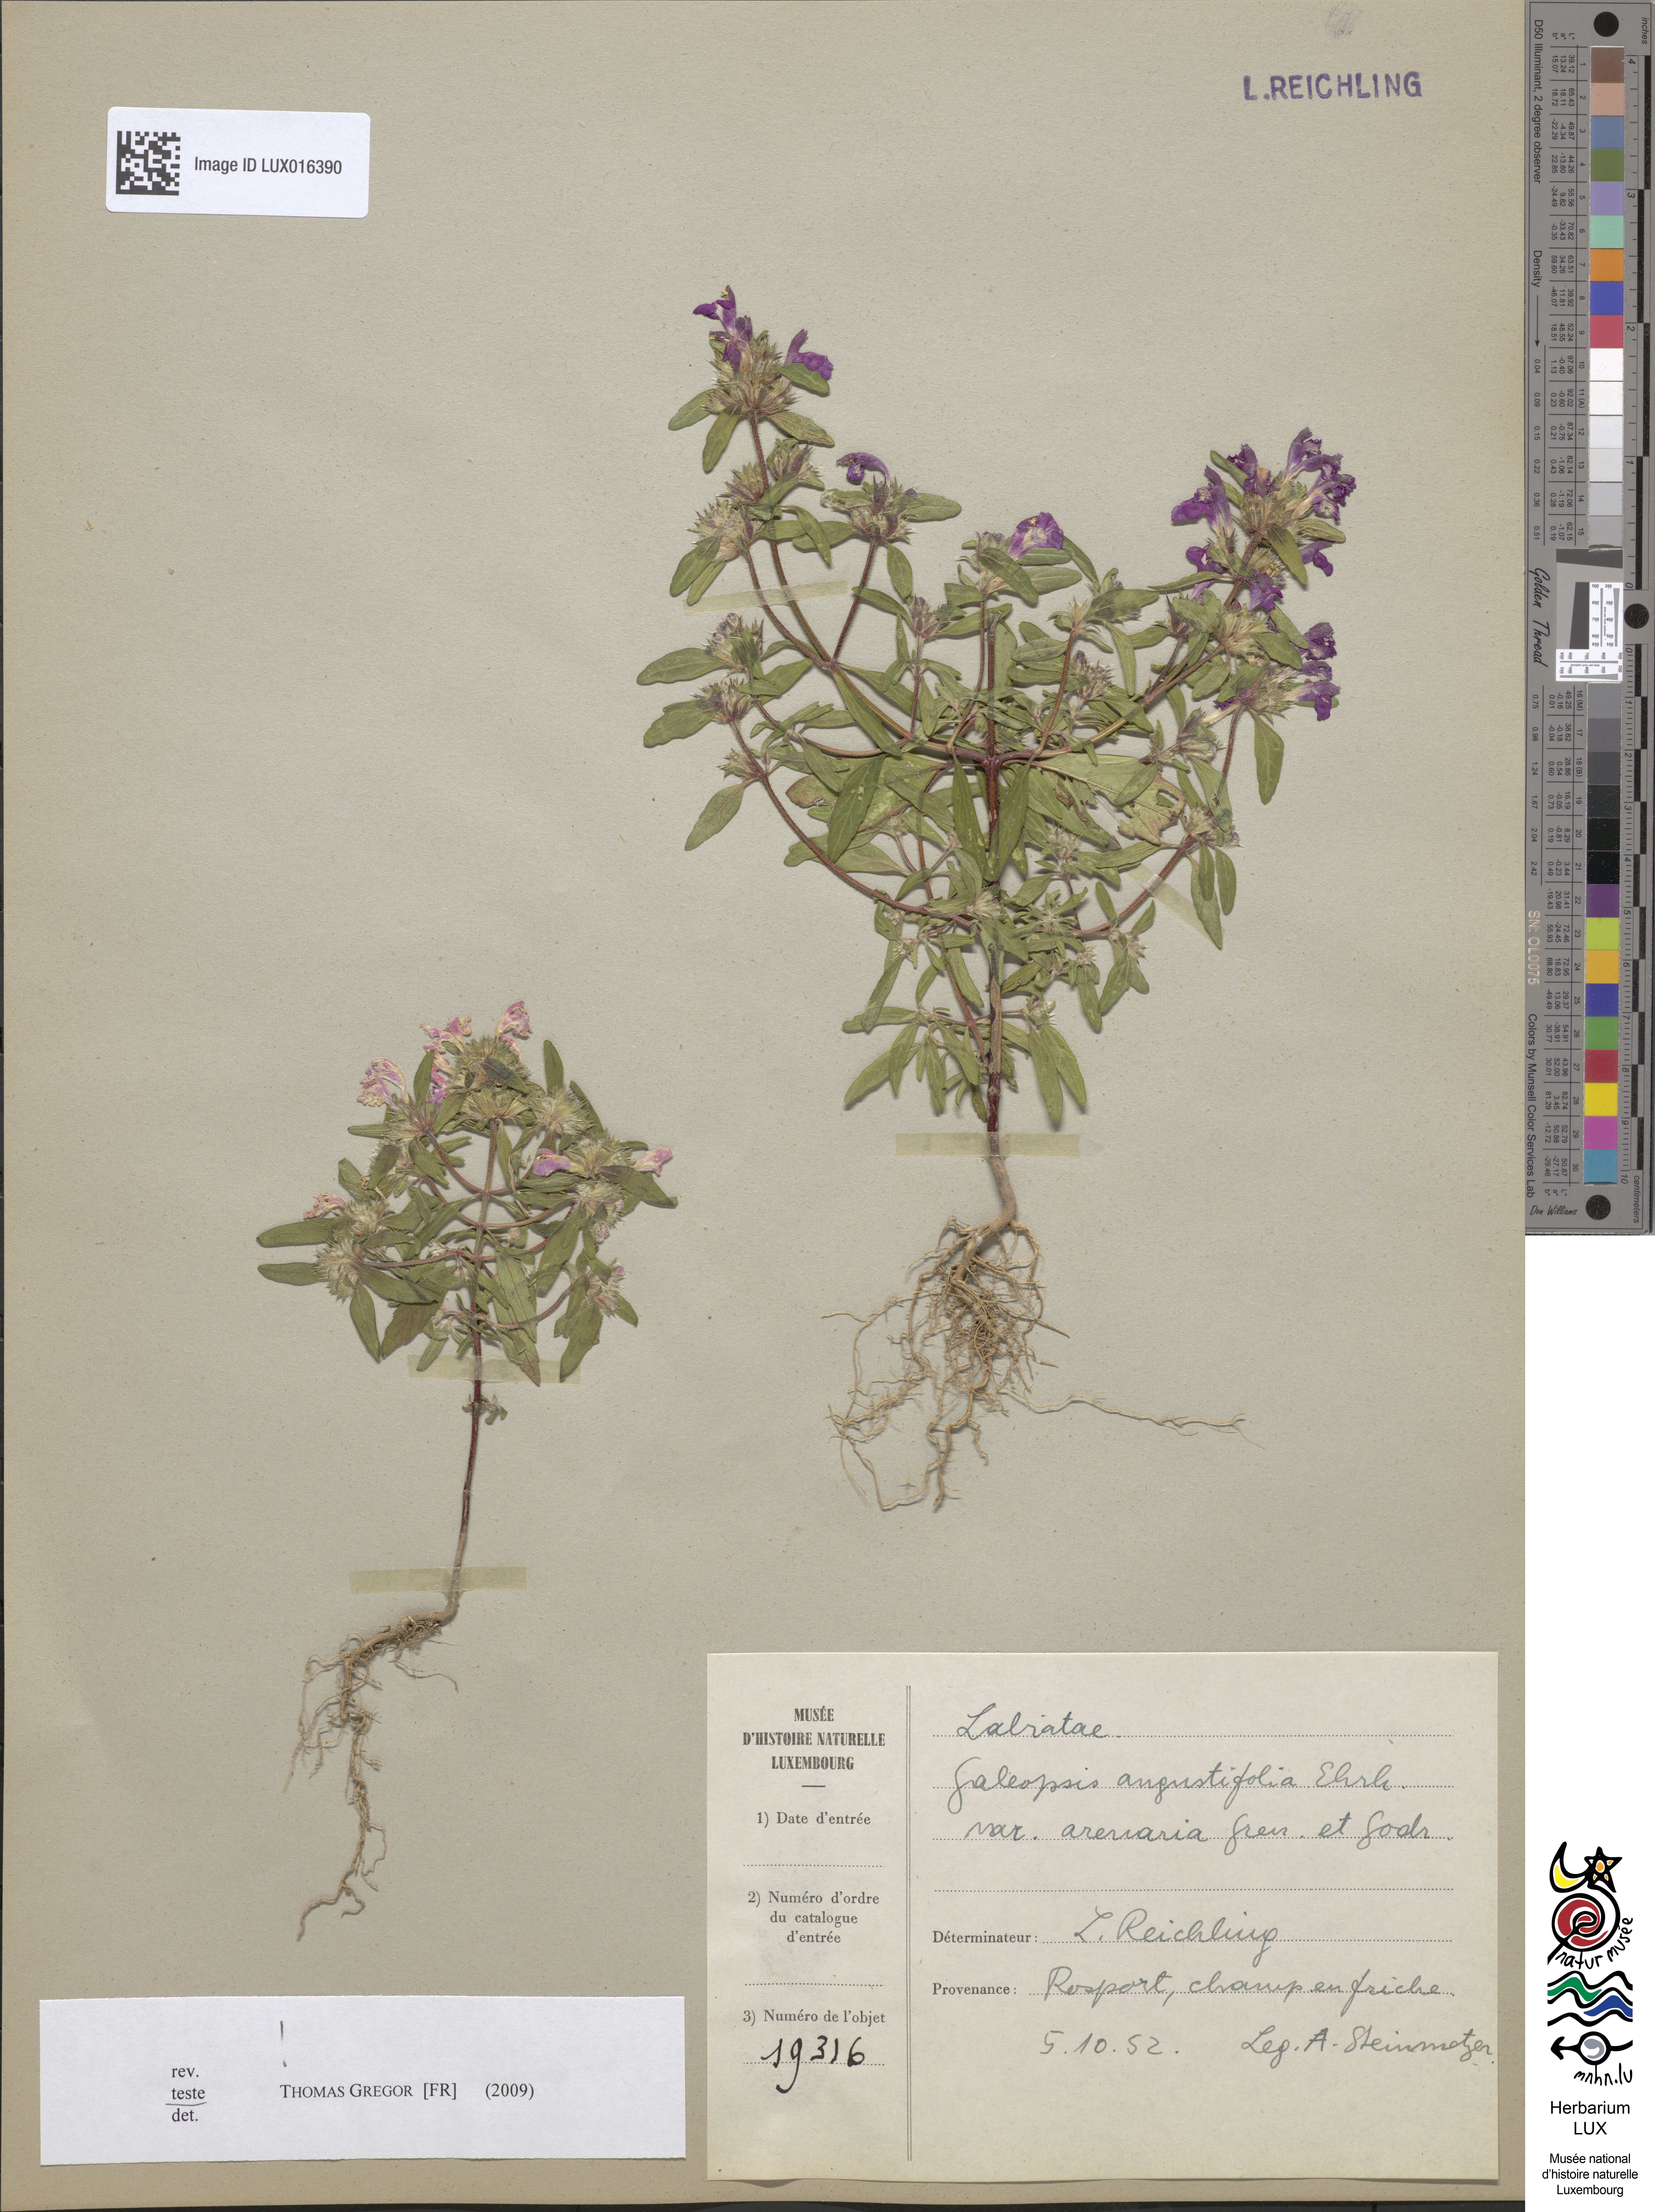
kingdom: Plantae
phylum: Tracheophyta
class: Magnoliopsida
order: Lamiales
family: Lamiaceae
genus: Galeopsis
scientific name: Galeopsis angustifolia
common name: Red hemp-nettle
